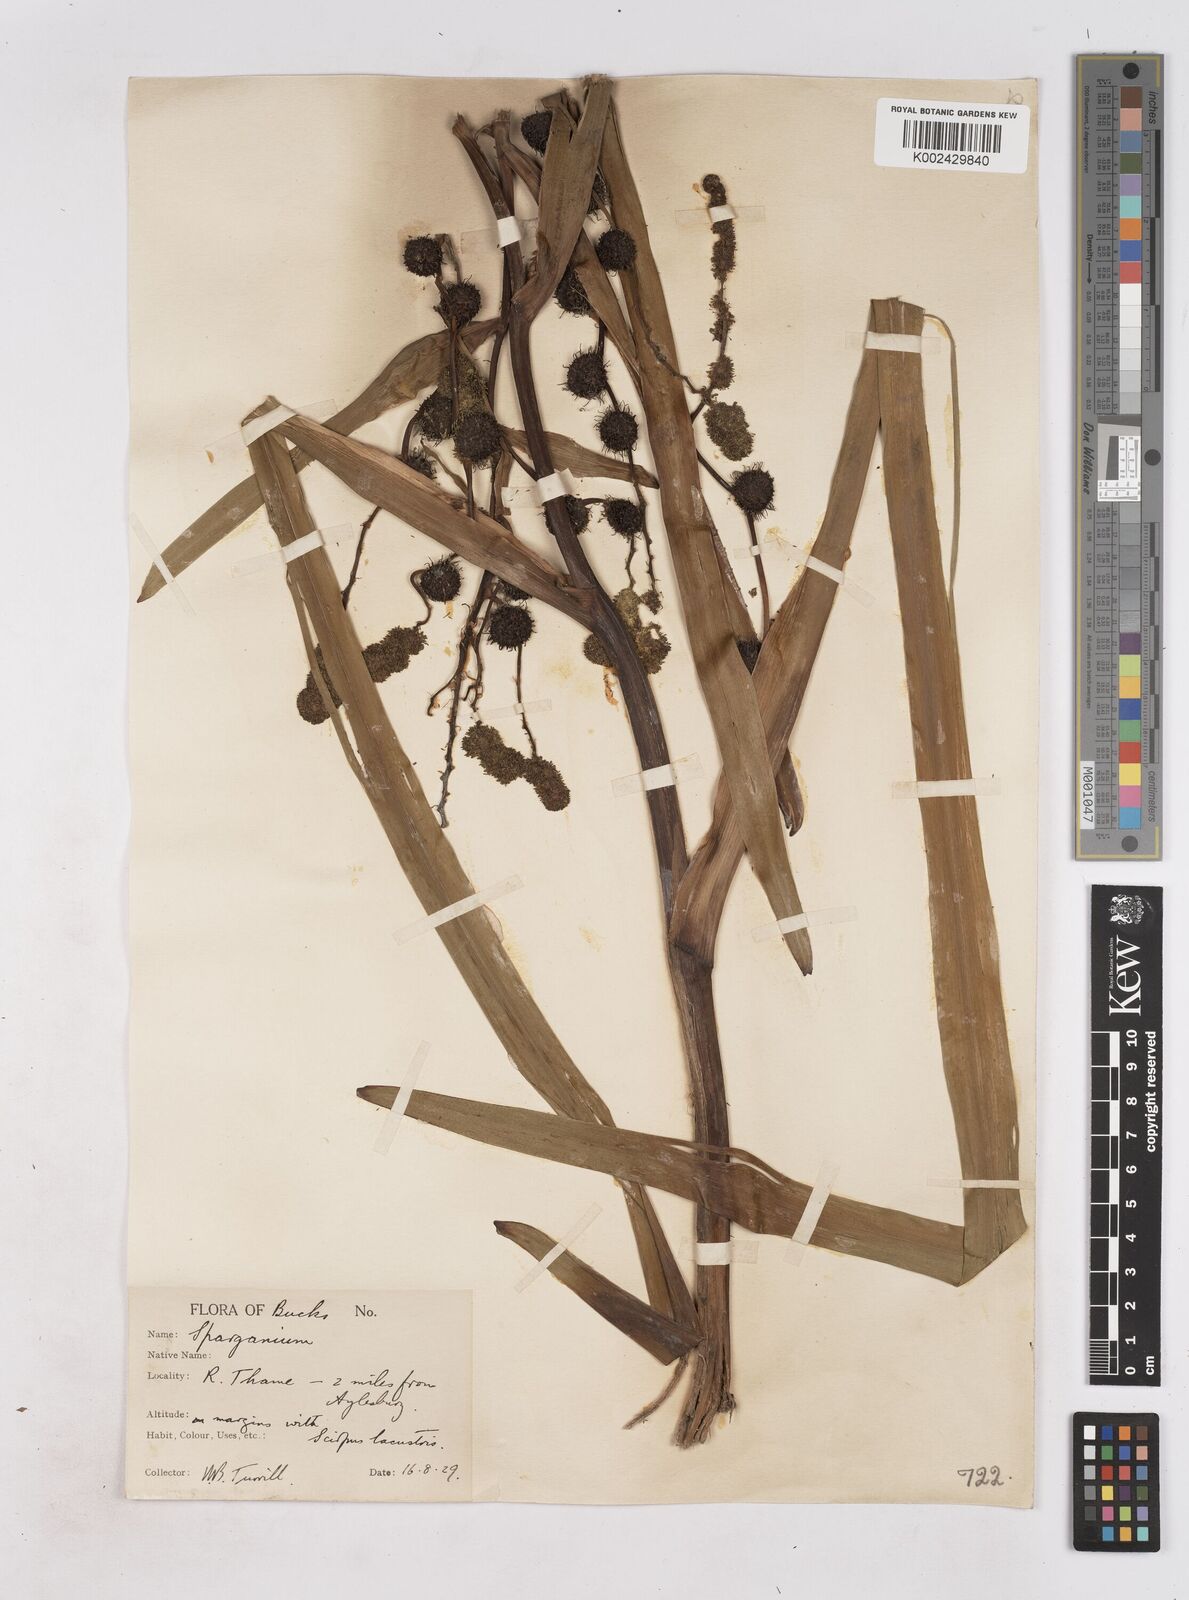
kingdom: Plantae
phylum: Tracheophyta
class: Liliopsida
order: Poales
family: Typhaceae
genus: Sparganium
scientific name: Sparganium erectum
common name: Branched bur-reed
